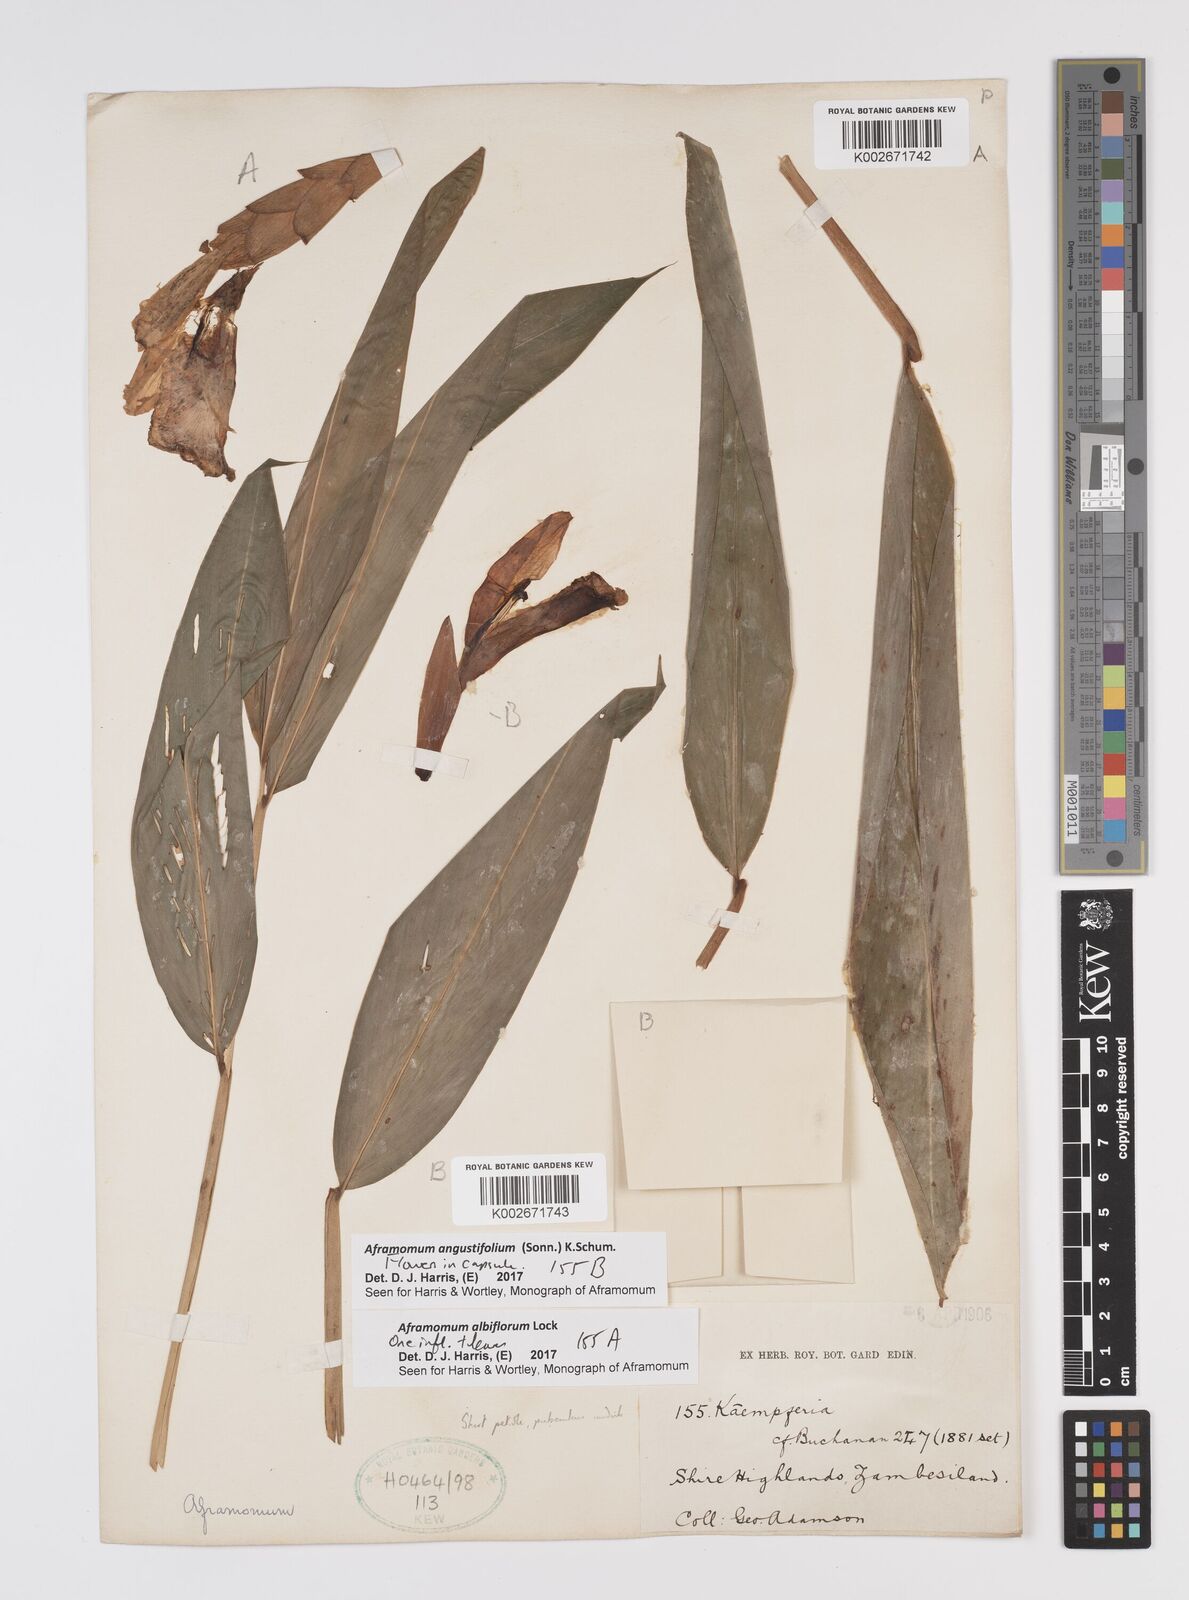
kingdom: Plantae
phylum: Tracheophyta
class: Liliopsida
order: Zingiberales
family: Zingiberaceae
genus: Aframomum
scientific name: Aframomum albiflorum
